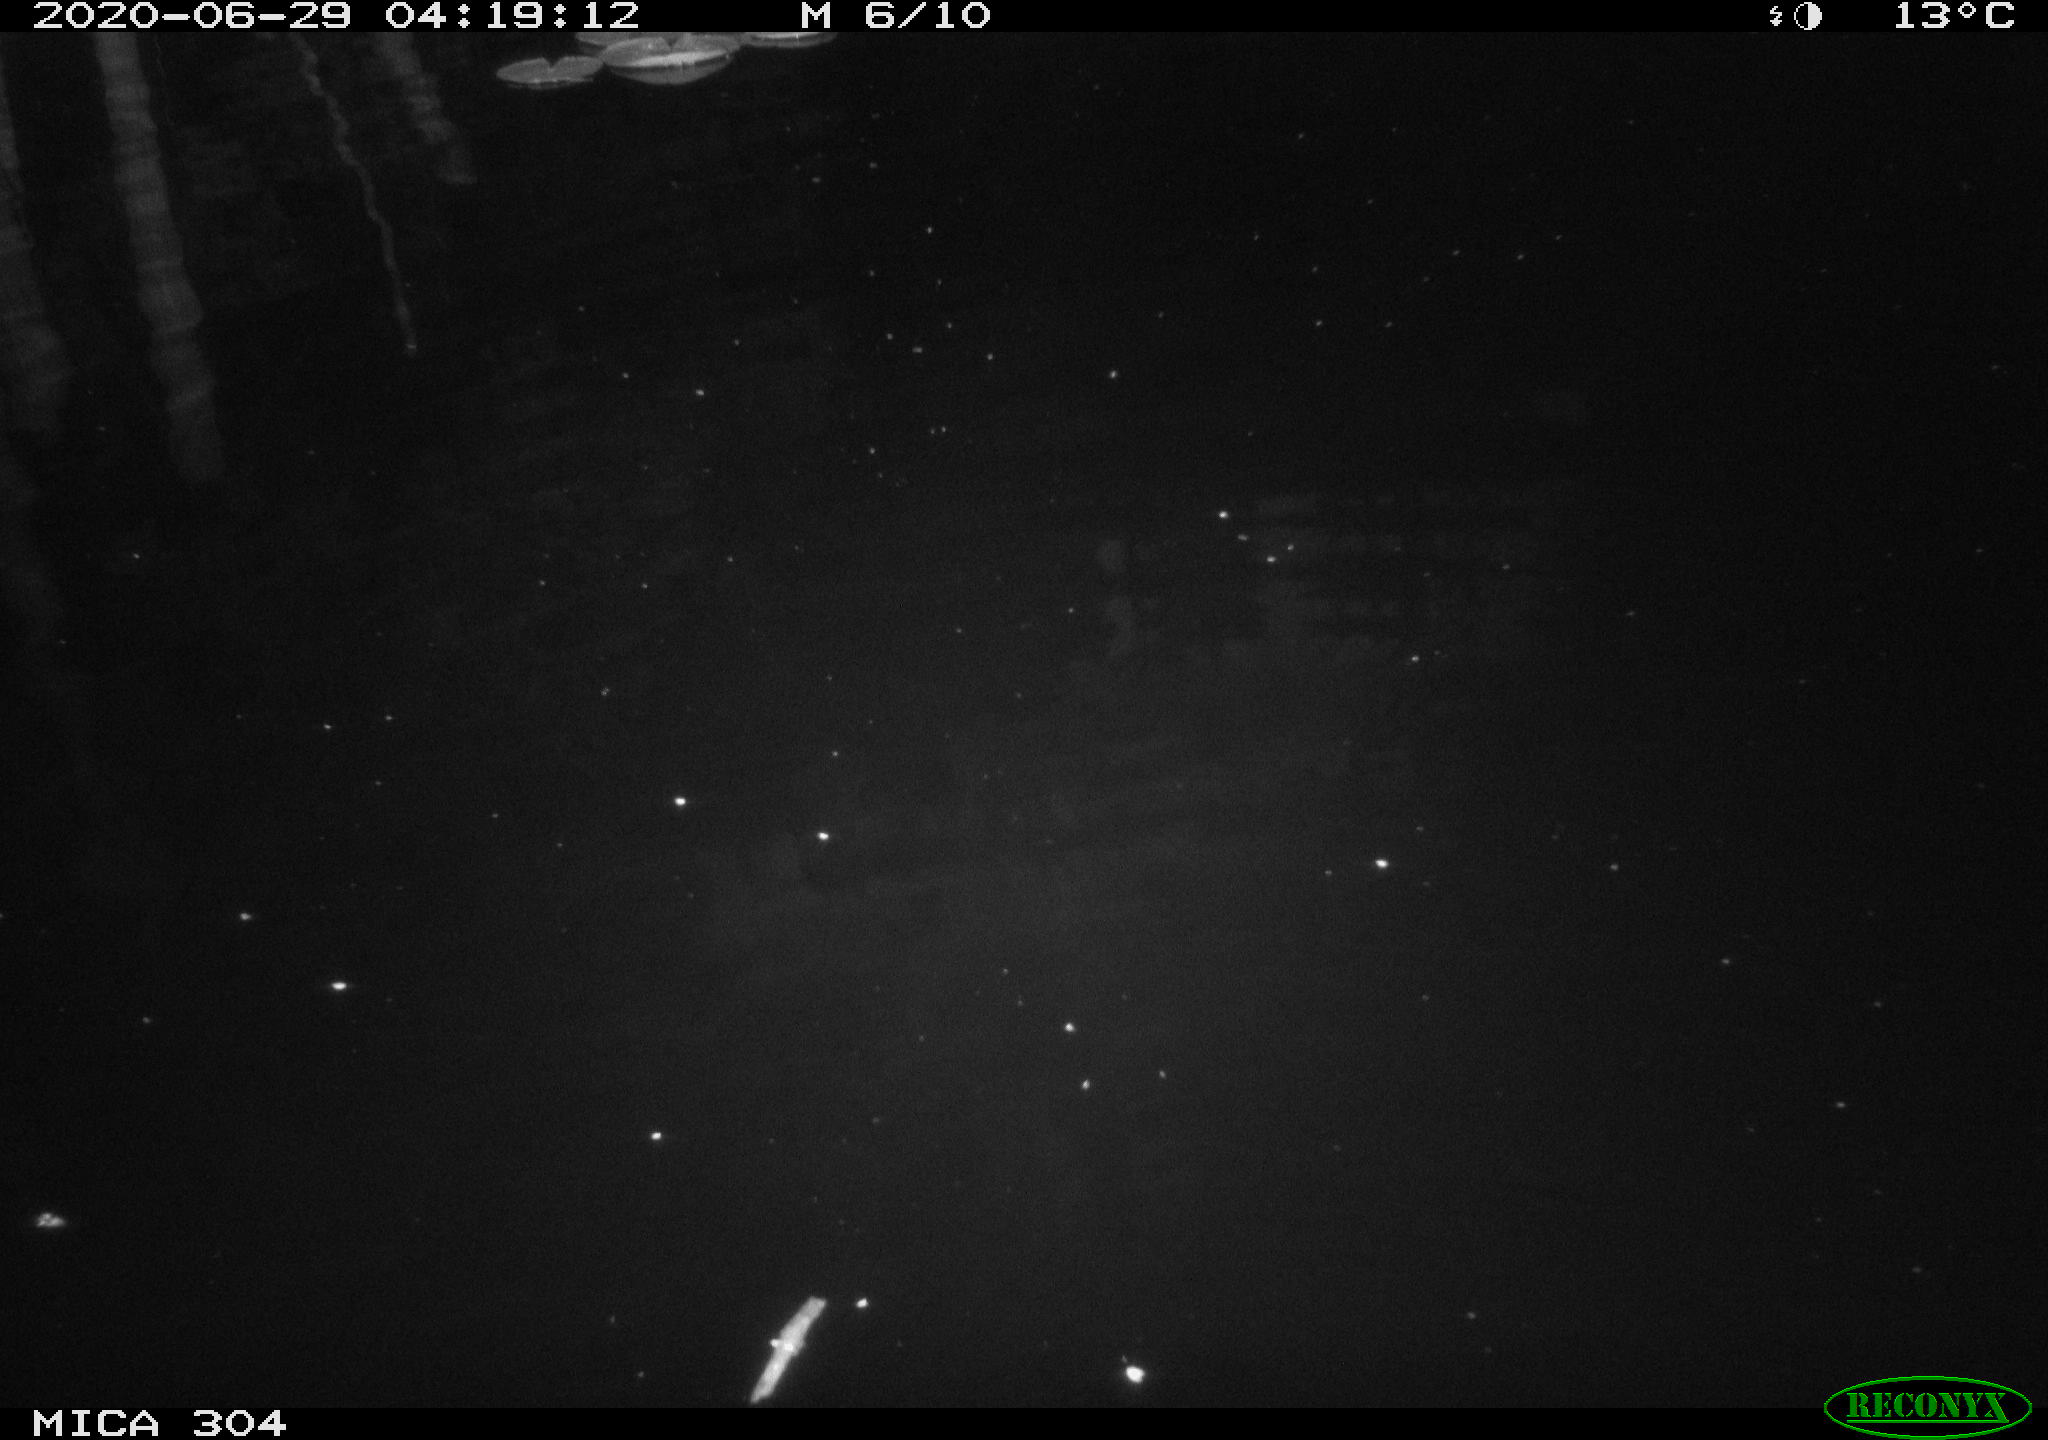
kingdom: Animalia
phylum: Chordata
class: Aves
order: Anseriformes
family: Anatidae
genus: Anas
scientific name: Anas platyrhynchos
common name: Mallard
